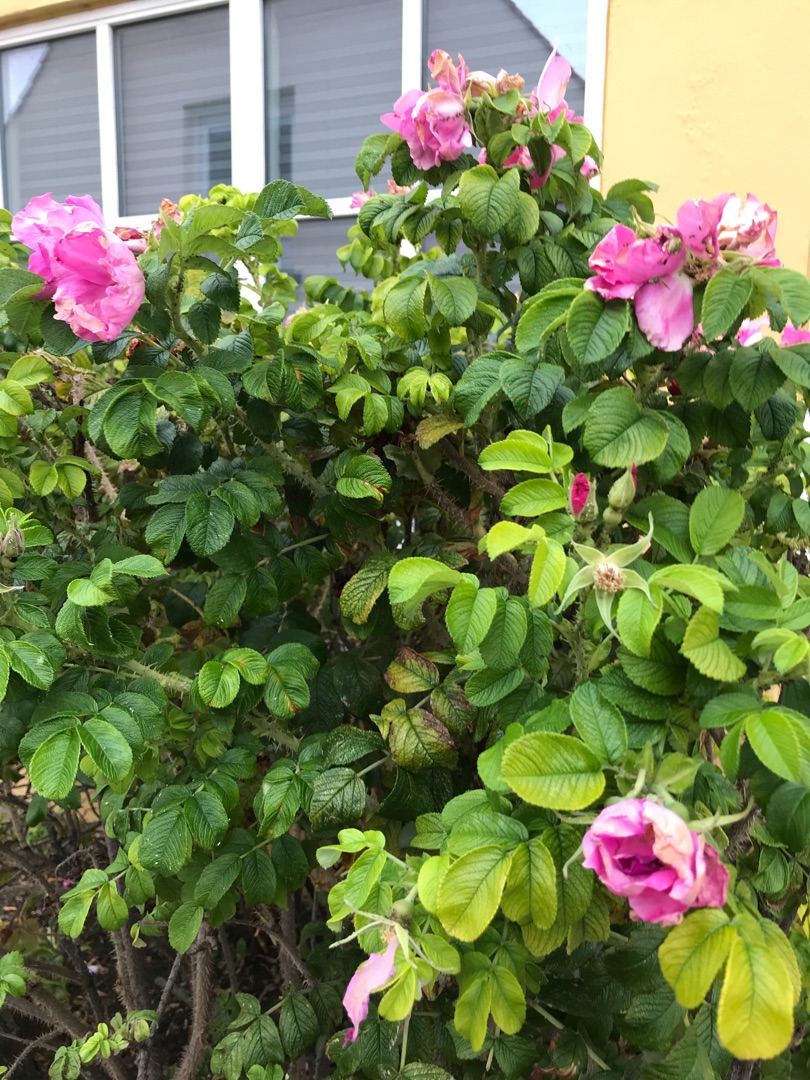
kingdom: Plantae
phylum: Tracheophyta
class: Magnoliopsida
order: Rosales
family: Rosaceae
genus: Rosa
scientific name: Rosa rugosa
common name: Rynket rose
